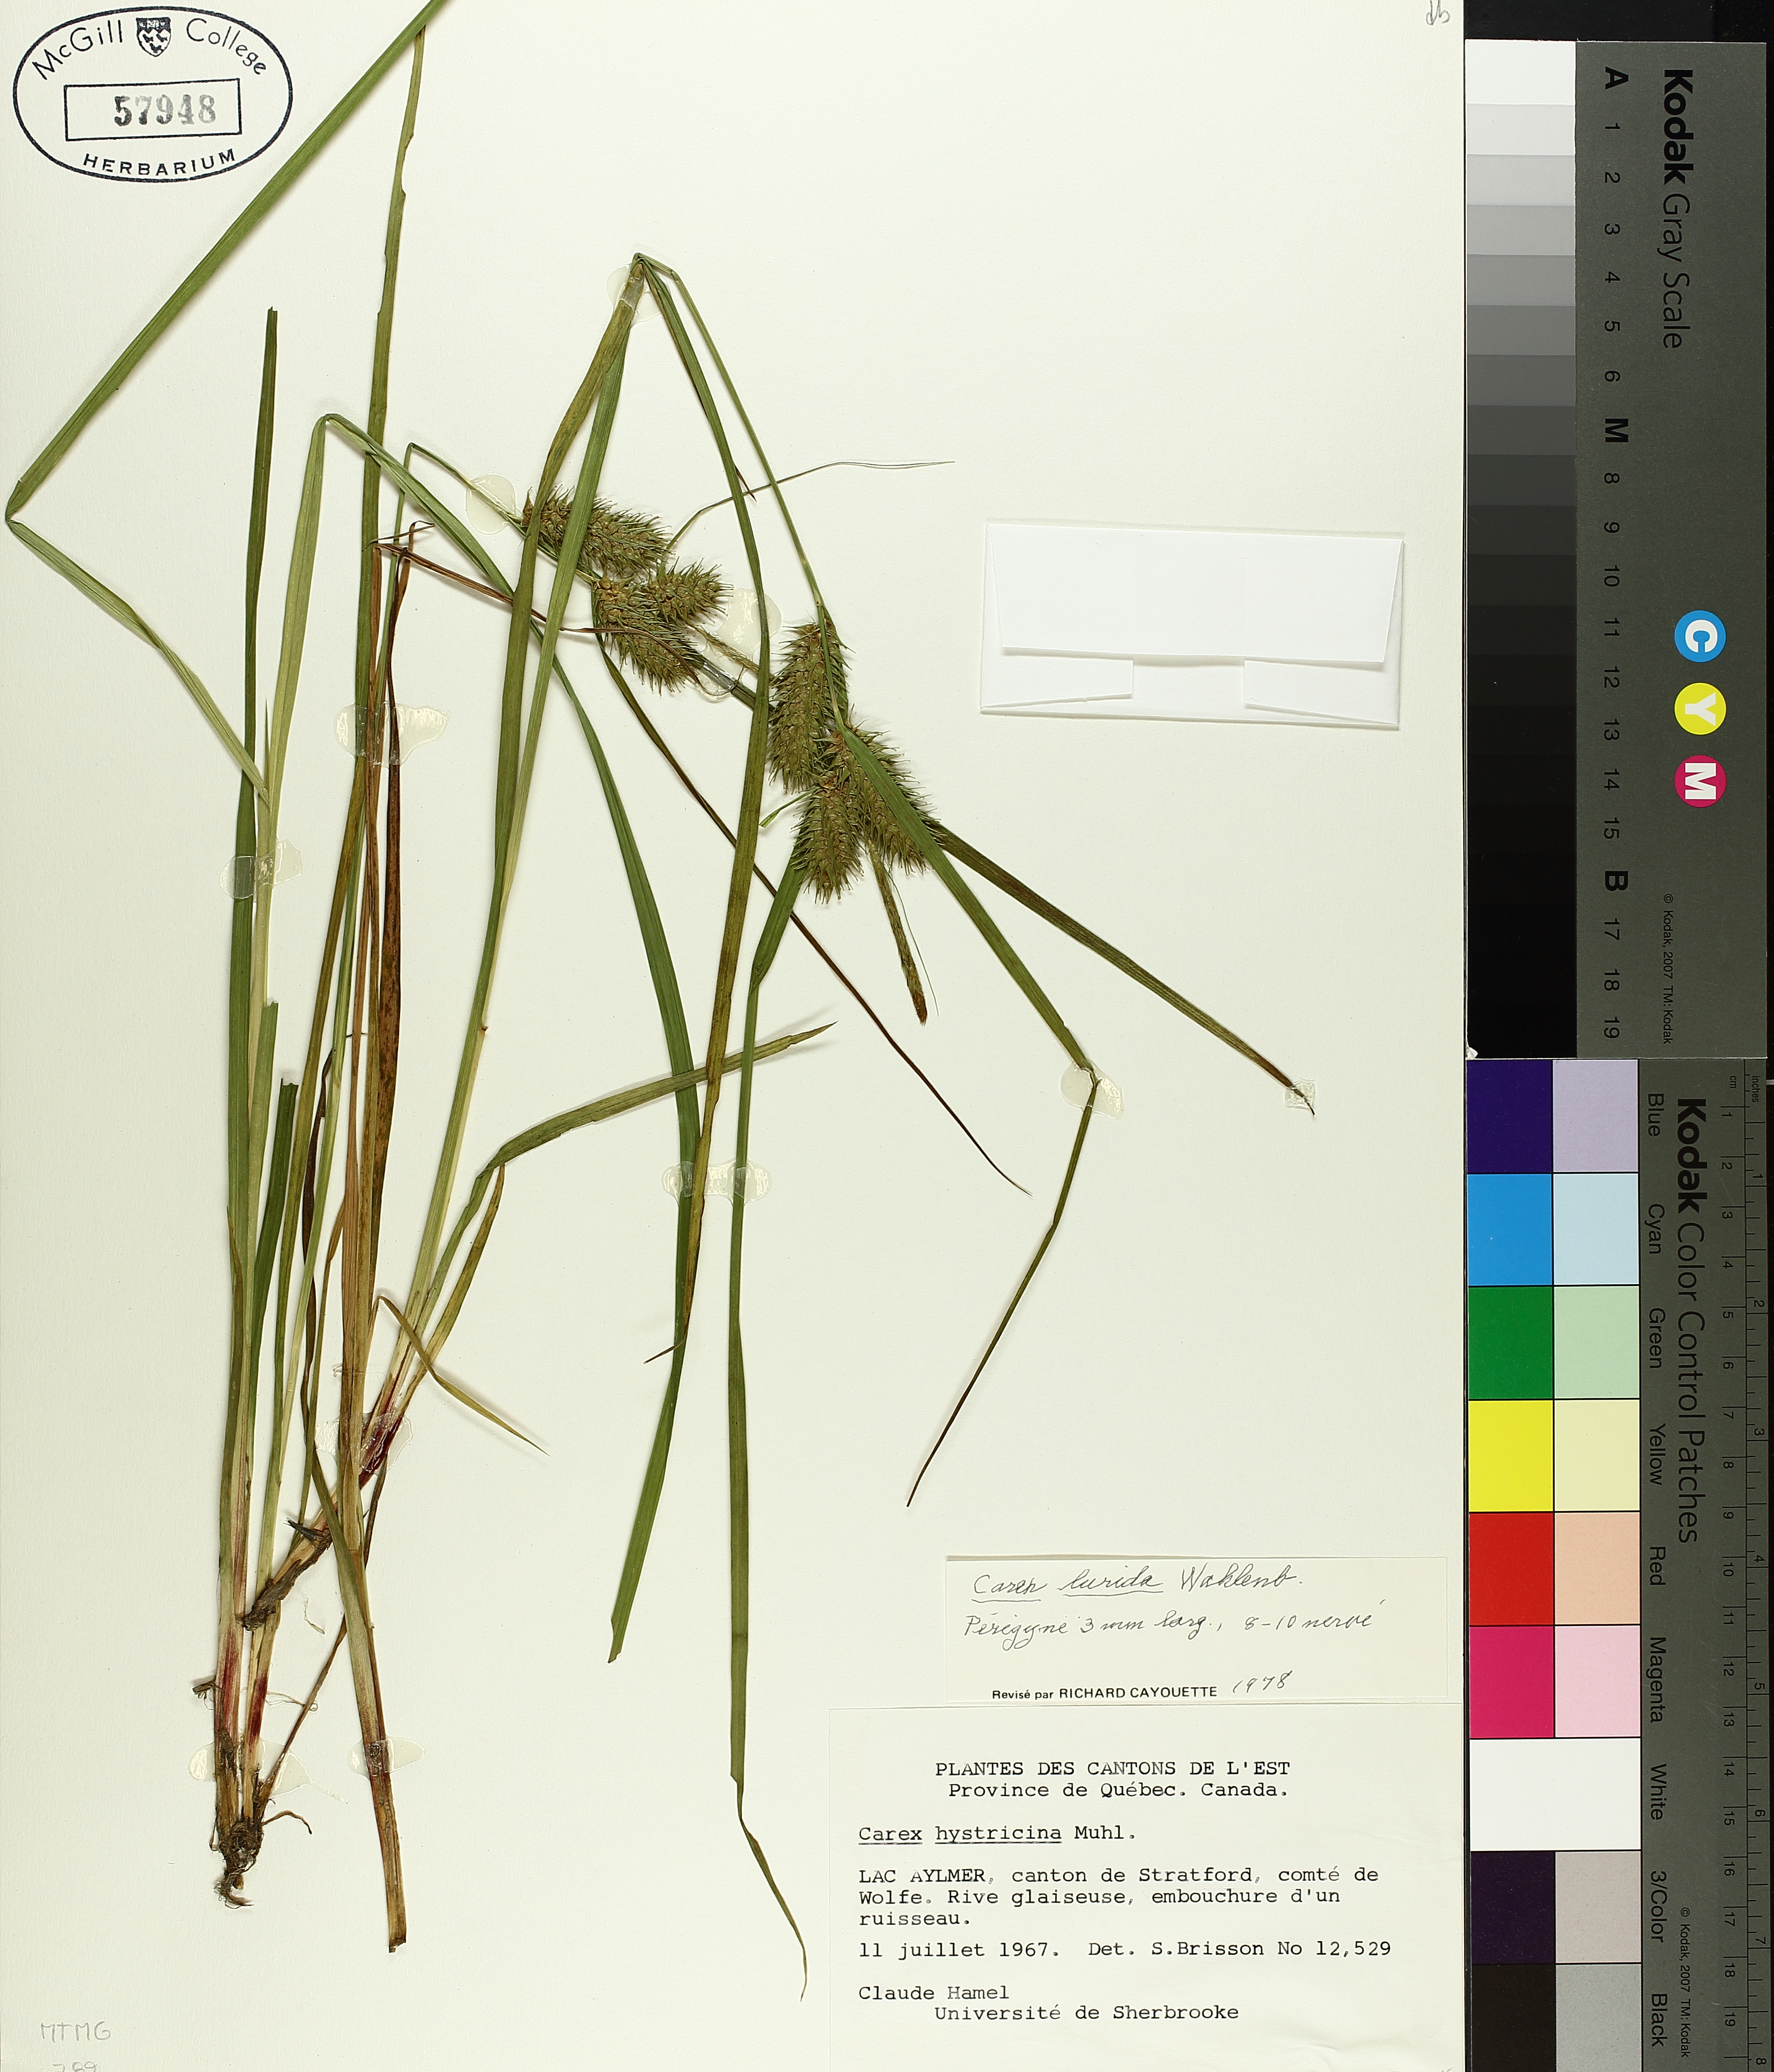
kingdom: Plantae
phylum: Tracheophyta
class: Liliopsida
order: Poales
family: Cyperaceae
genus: Carex
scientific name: Carex lurida
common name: Sallow sedge
